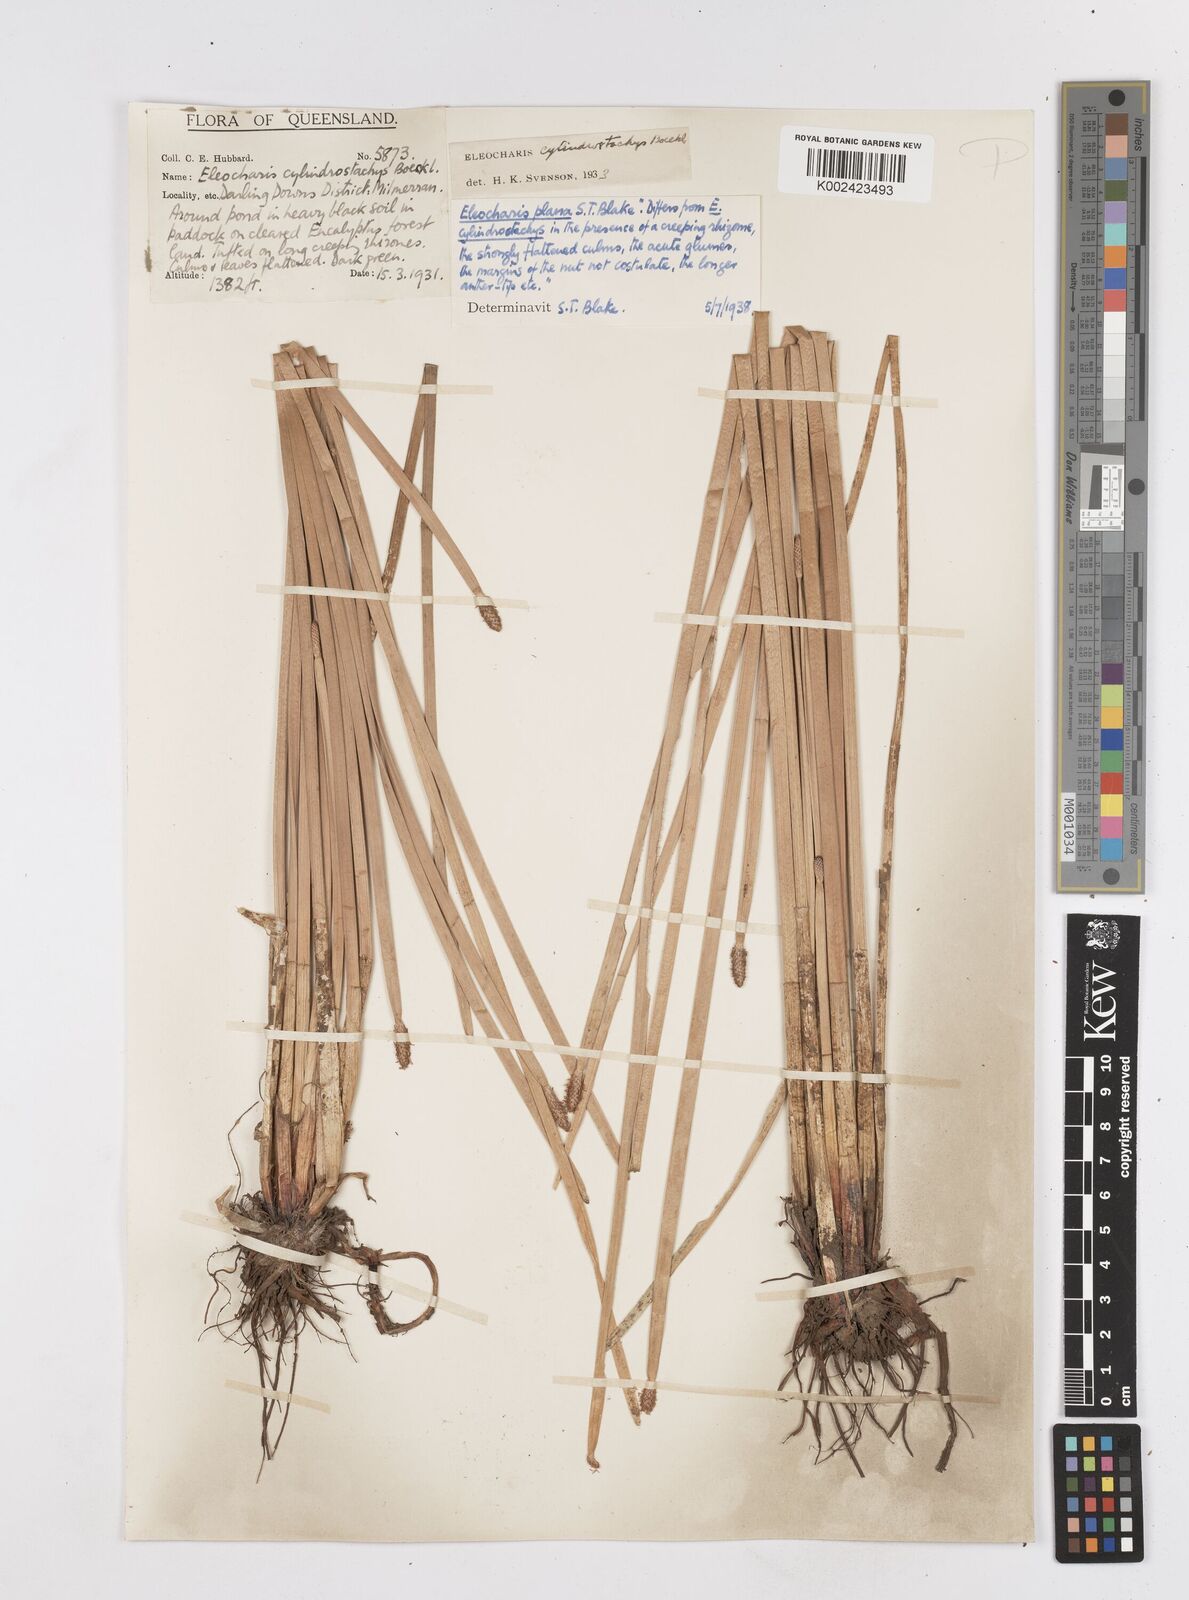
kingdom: Plantae
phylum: Tracheophyta
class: Liliopsida
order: Poales
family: Cyperaceae
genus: Eleocharis
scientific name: Eleocharis plana
